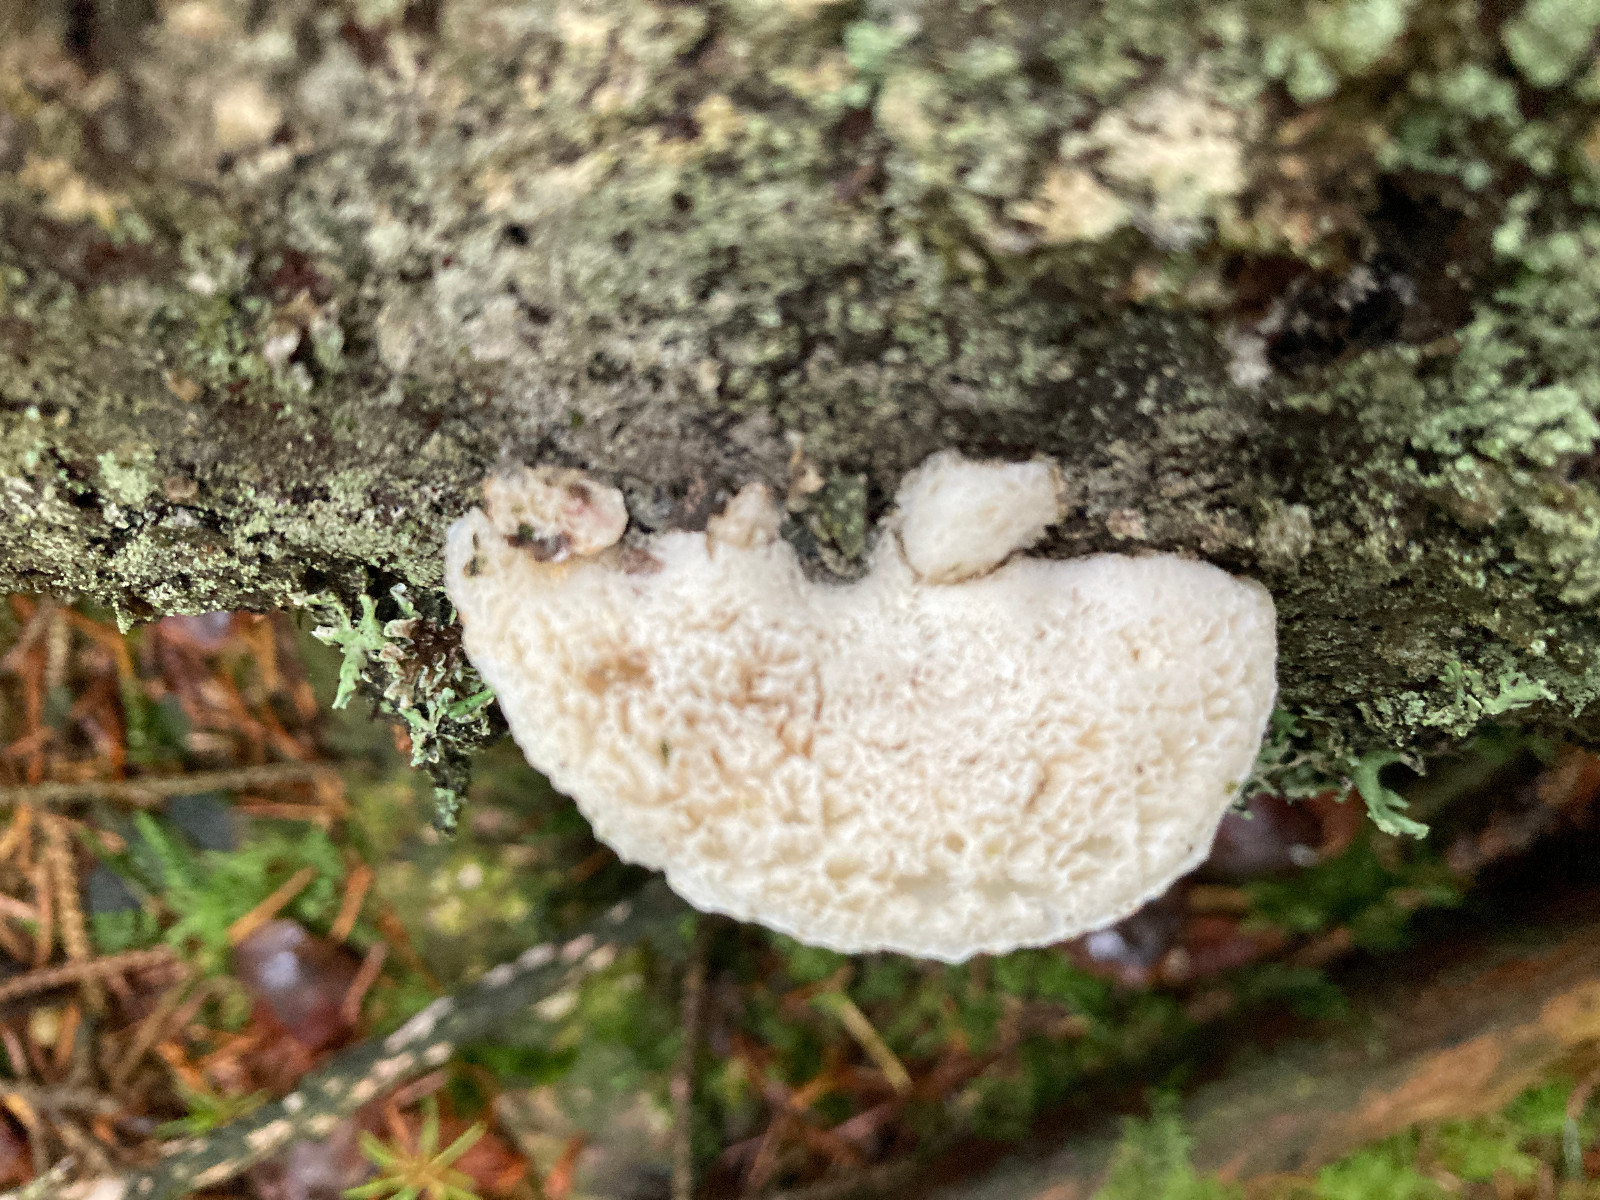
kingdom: Fungi
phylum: Basidiomycota
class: Agaricomycetes
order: Polyporales
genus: Fuscopostia
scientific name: Fuscopostia fragilis
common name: brunende kødporesvamp
